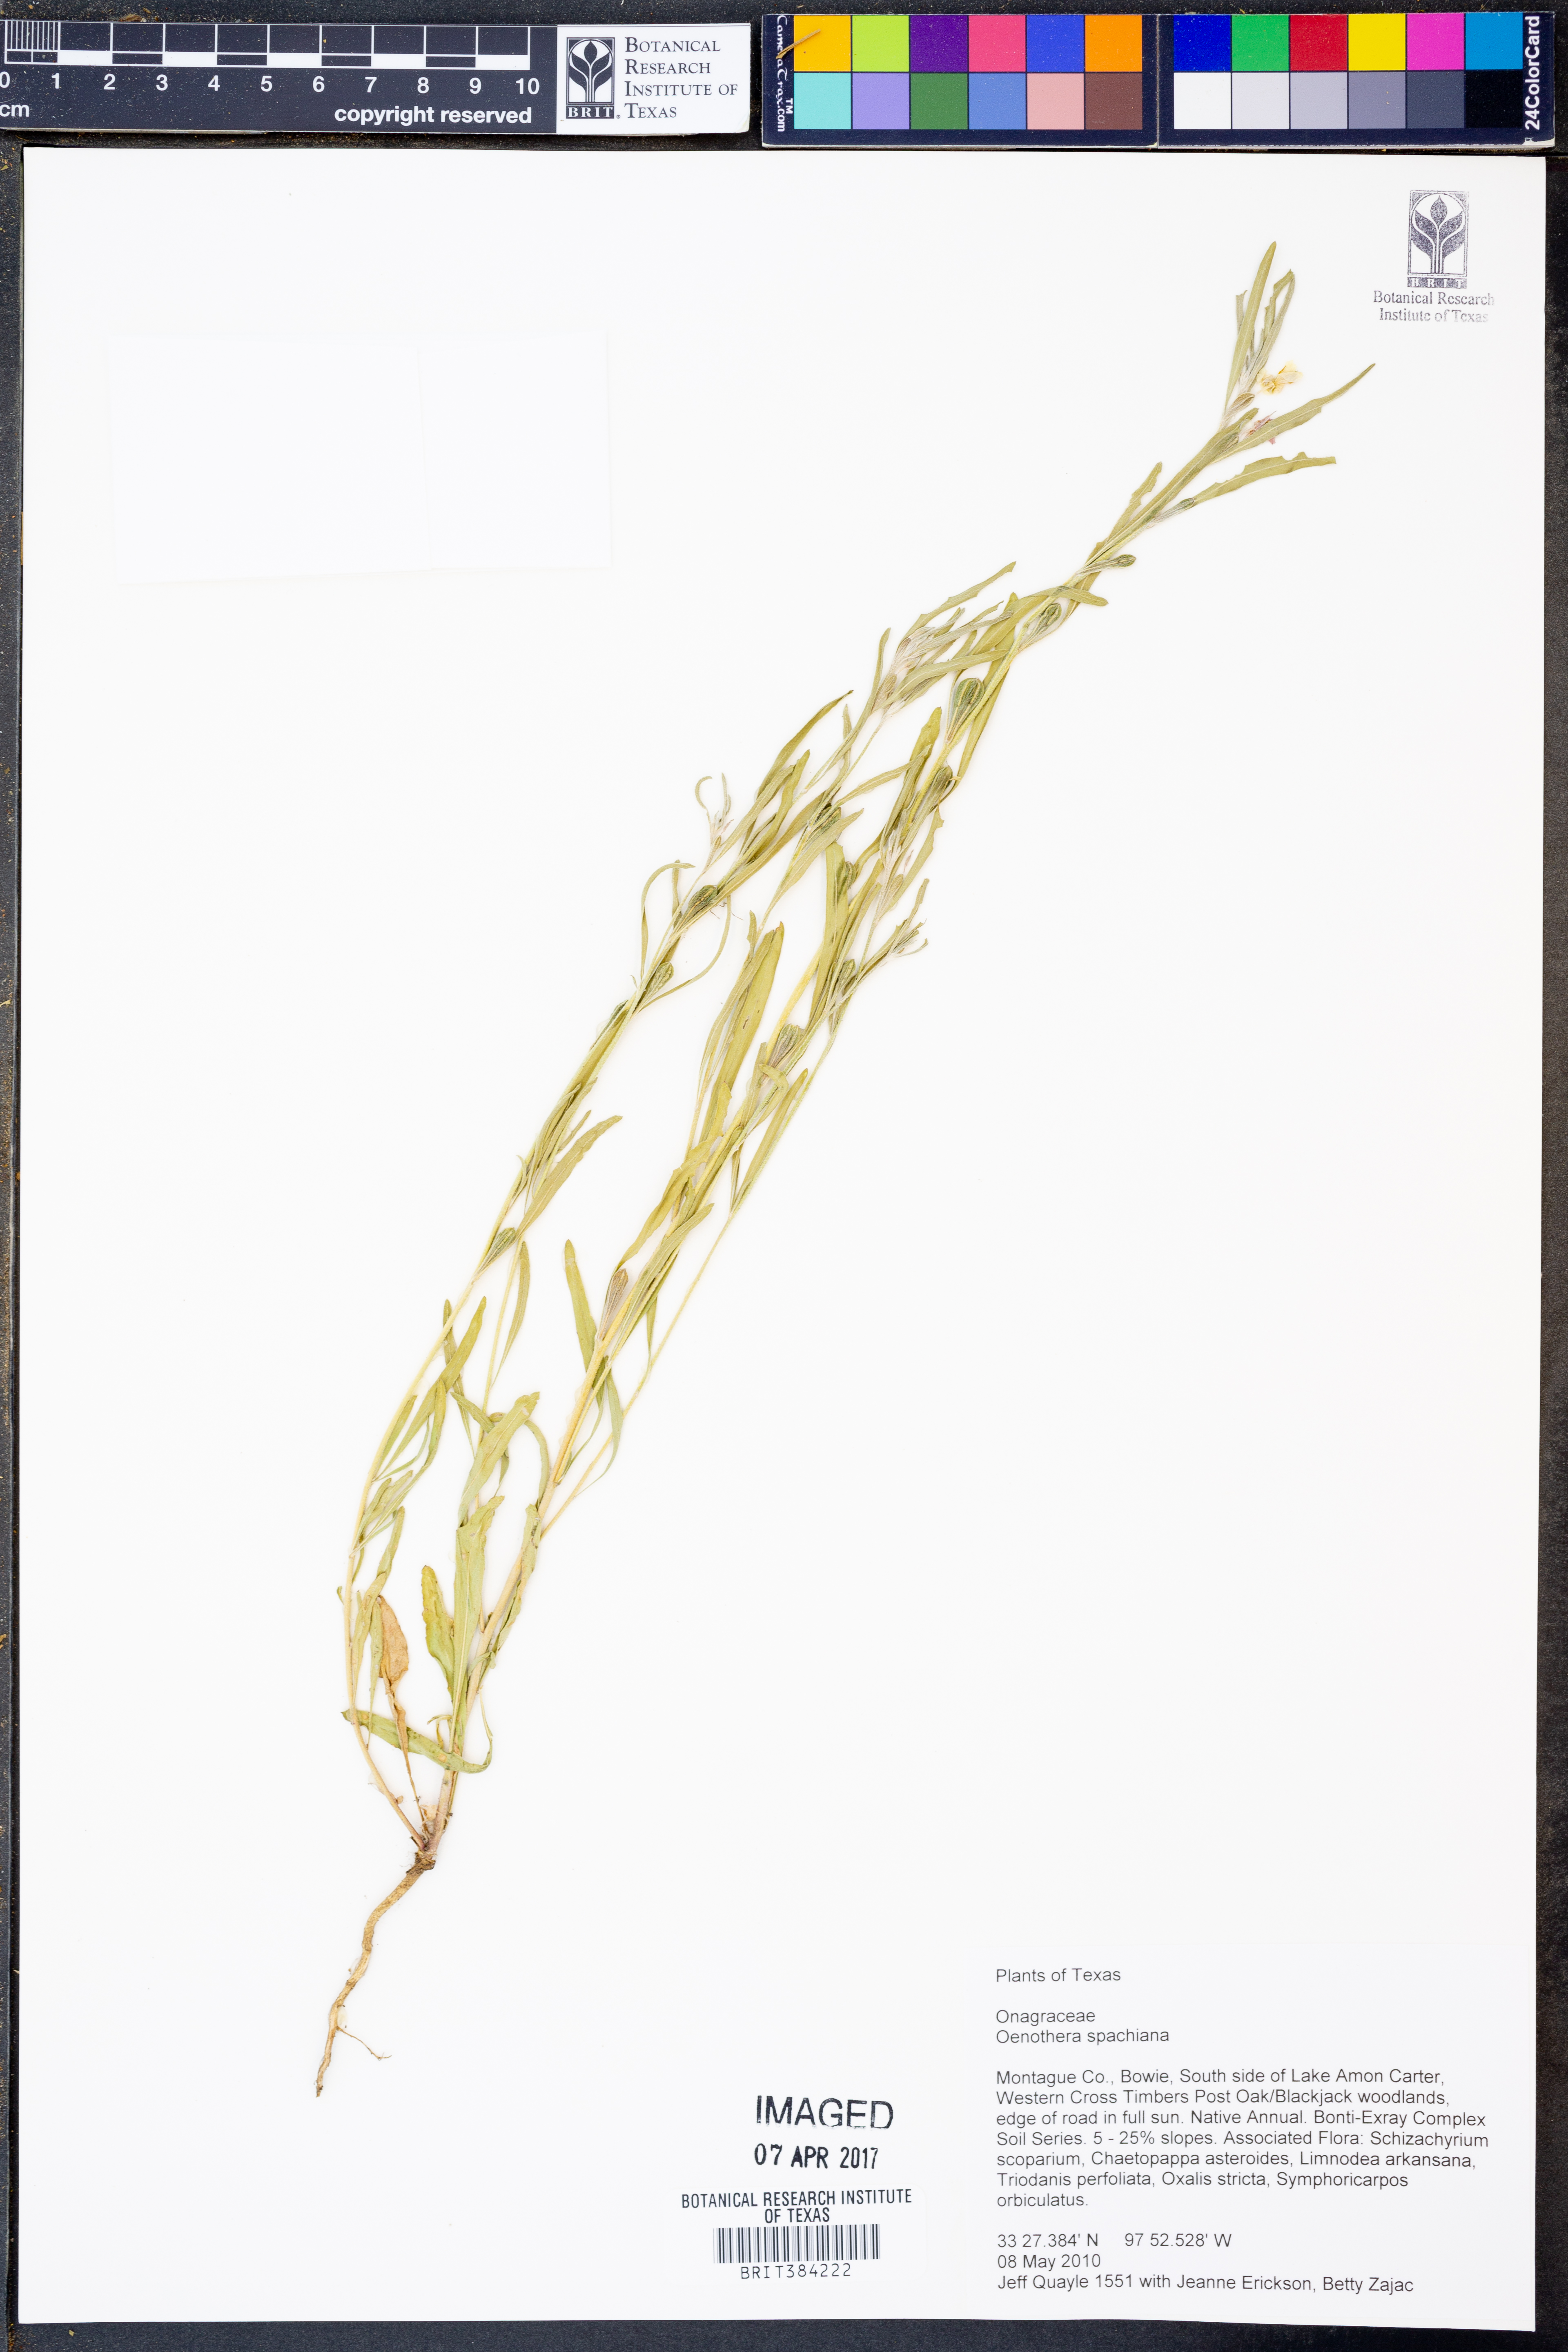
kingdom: Plantae
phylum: Tracheophyta
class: Magnoliopsida
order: Myrtales
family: Onagraceae
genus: Oenothera
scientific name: Oenothera spachiana
